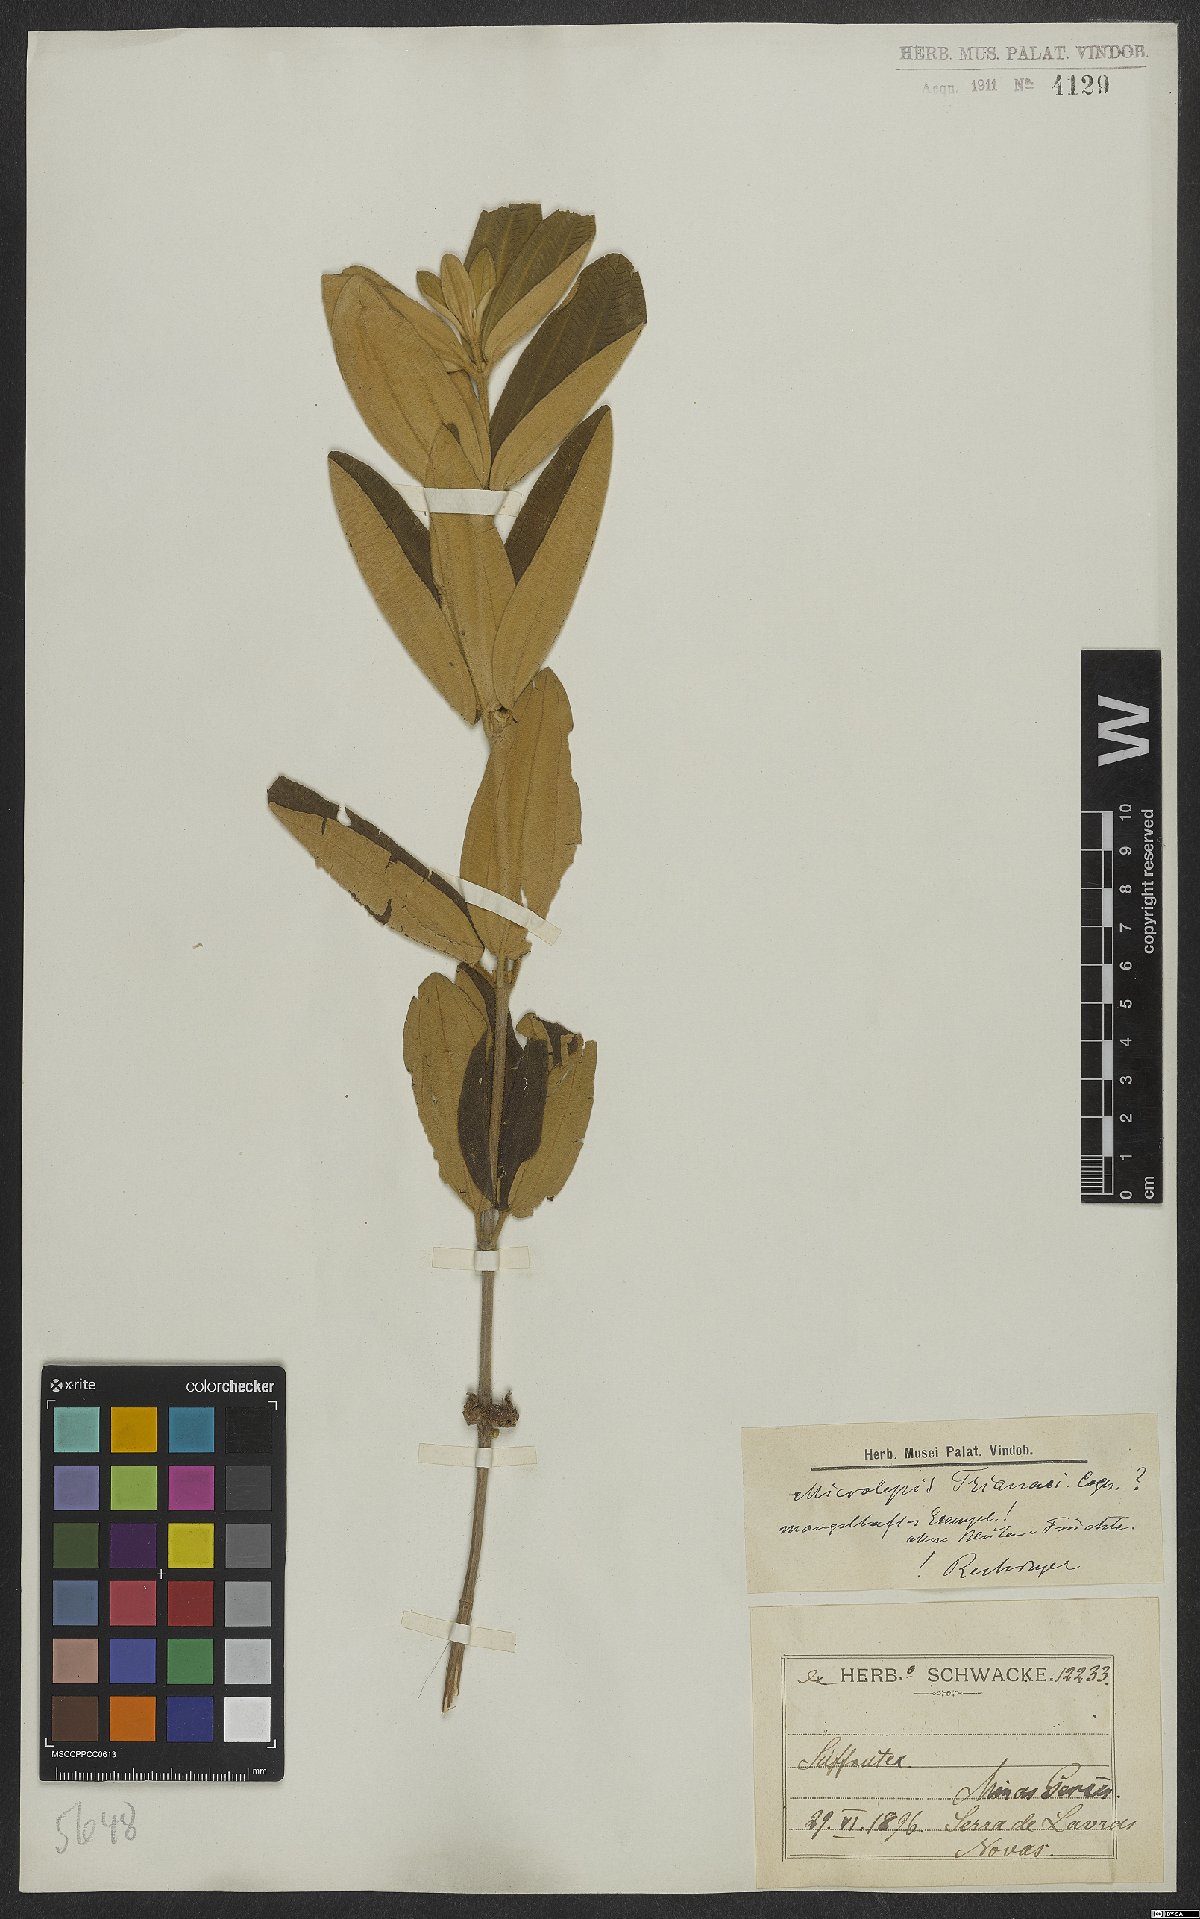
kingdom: Plantae
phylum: Tracheophyta
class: Magnoliopsida
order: Myrtales
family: Melastomataceae
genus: Pleroma
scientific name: Pleroma Microlepis trianaei
